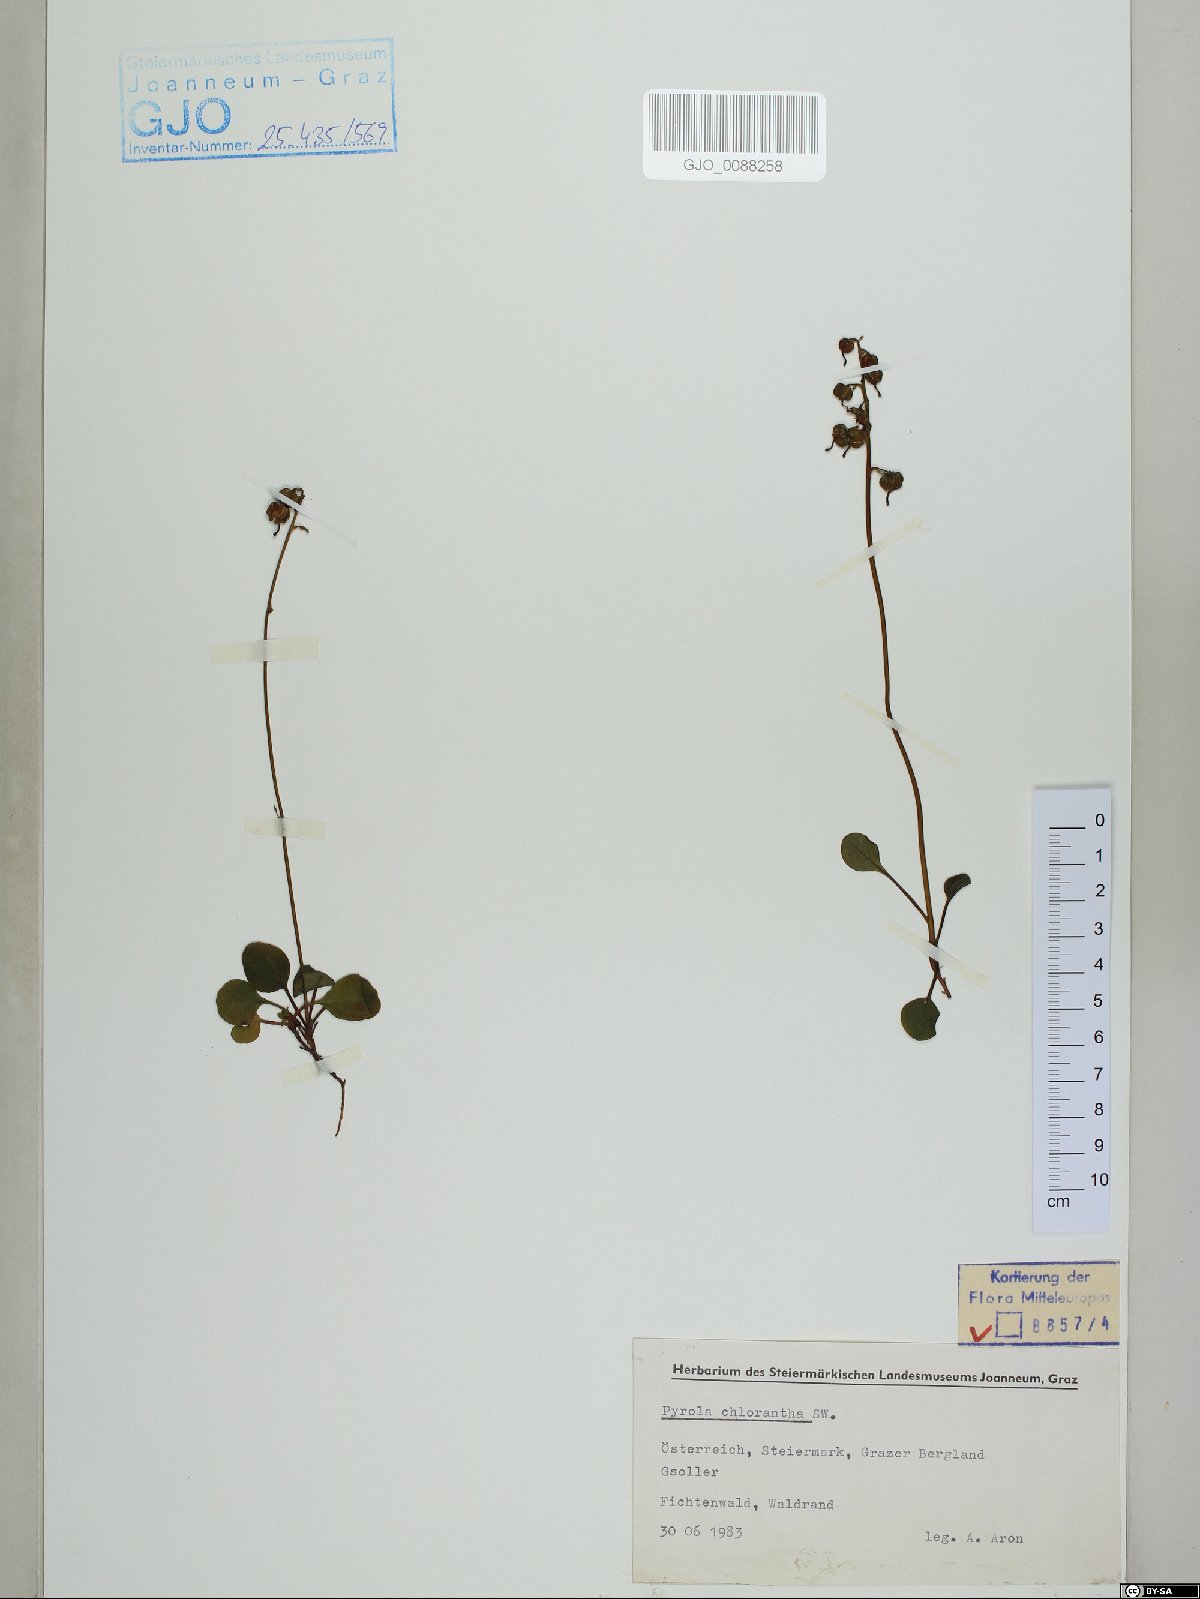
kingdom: Plantae
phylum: Tracheophyta
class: Magnoliopsida
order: Ericales
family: Ericaceae
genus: Pyrola
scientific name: Pyrola chlorantha
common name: Green wintergreen
